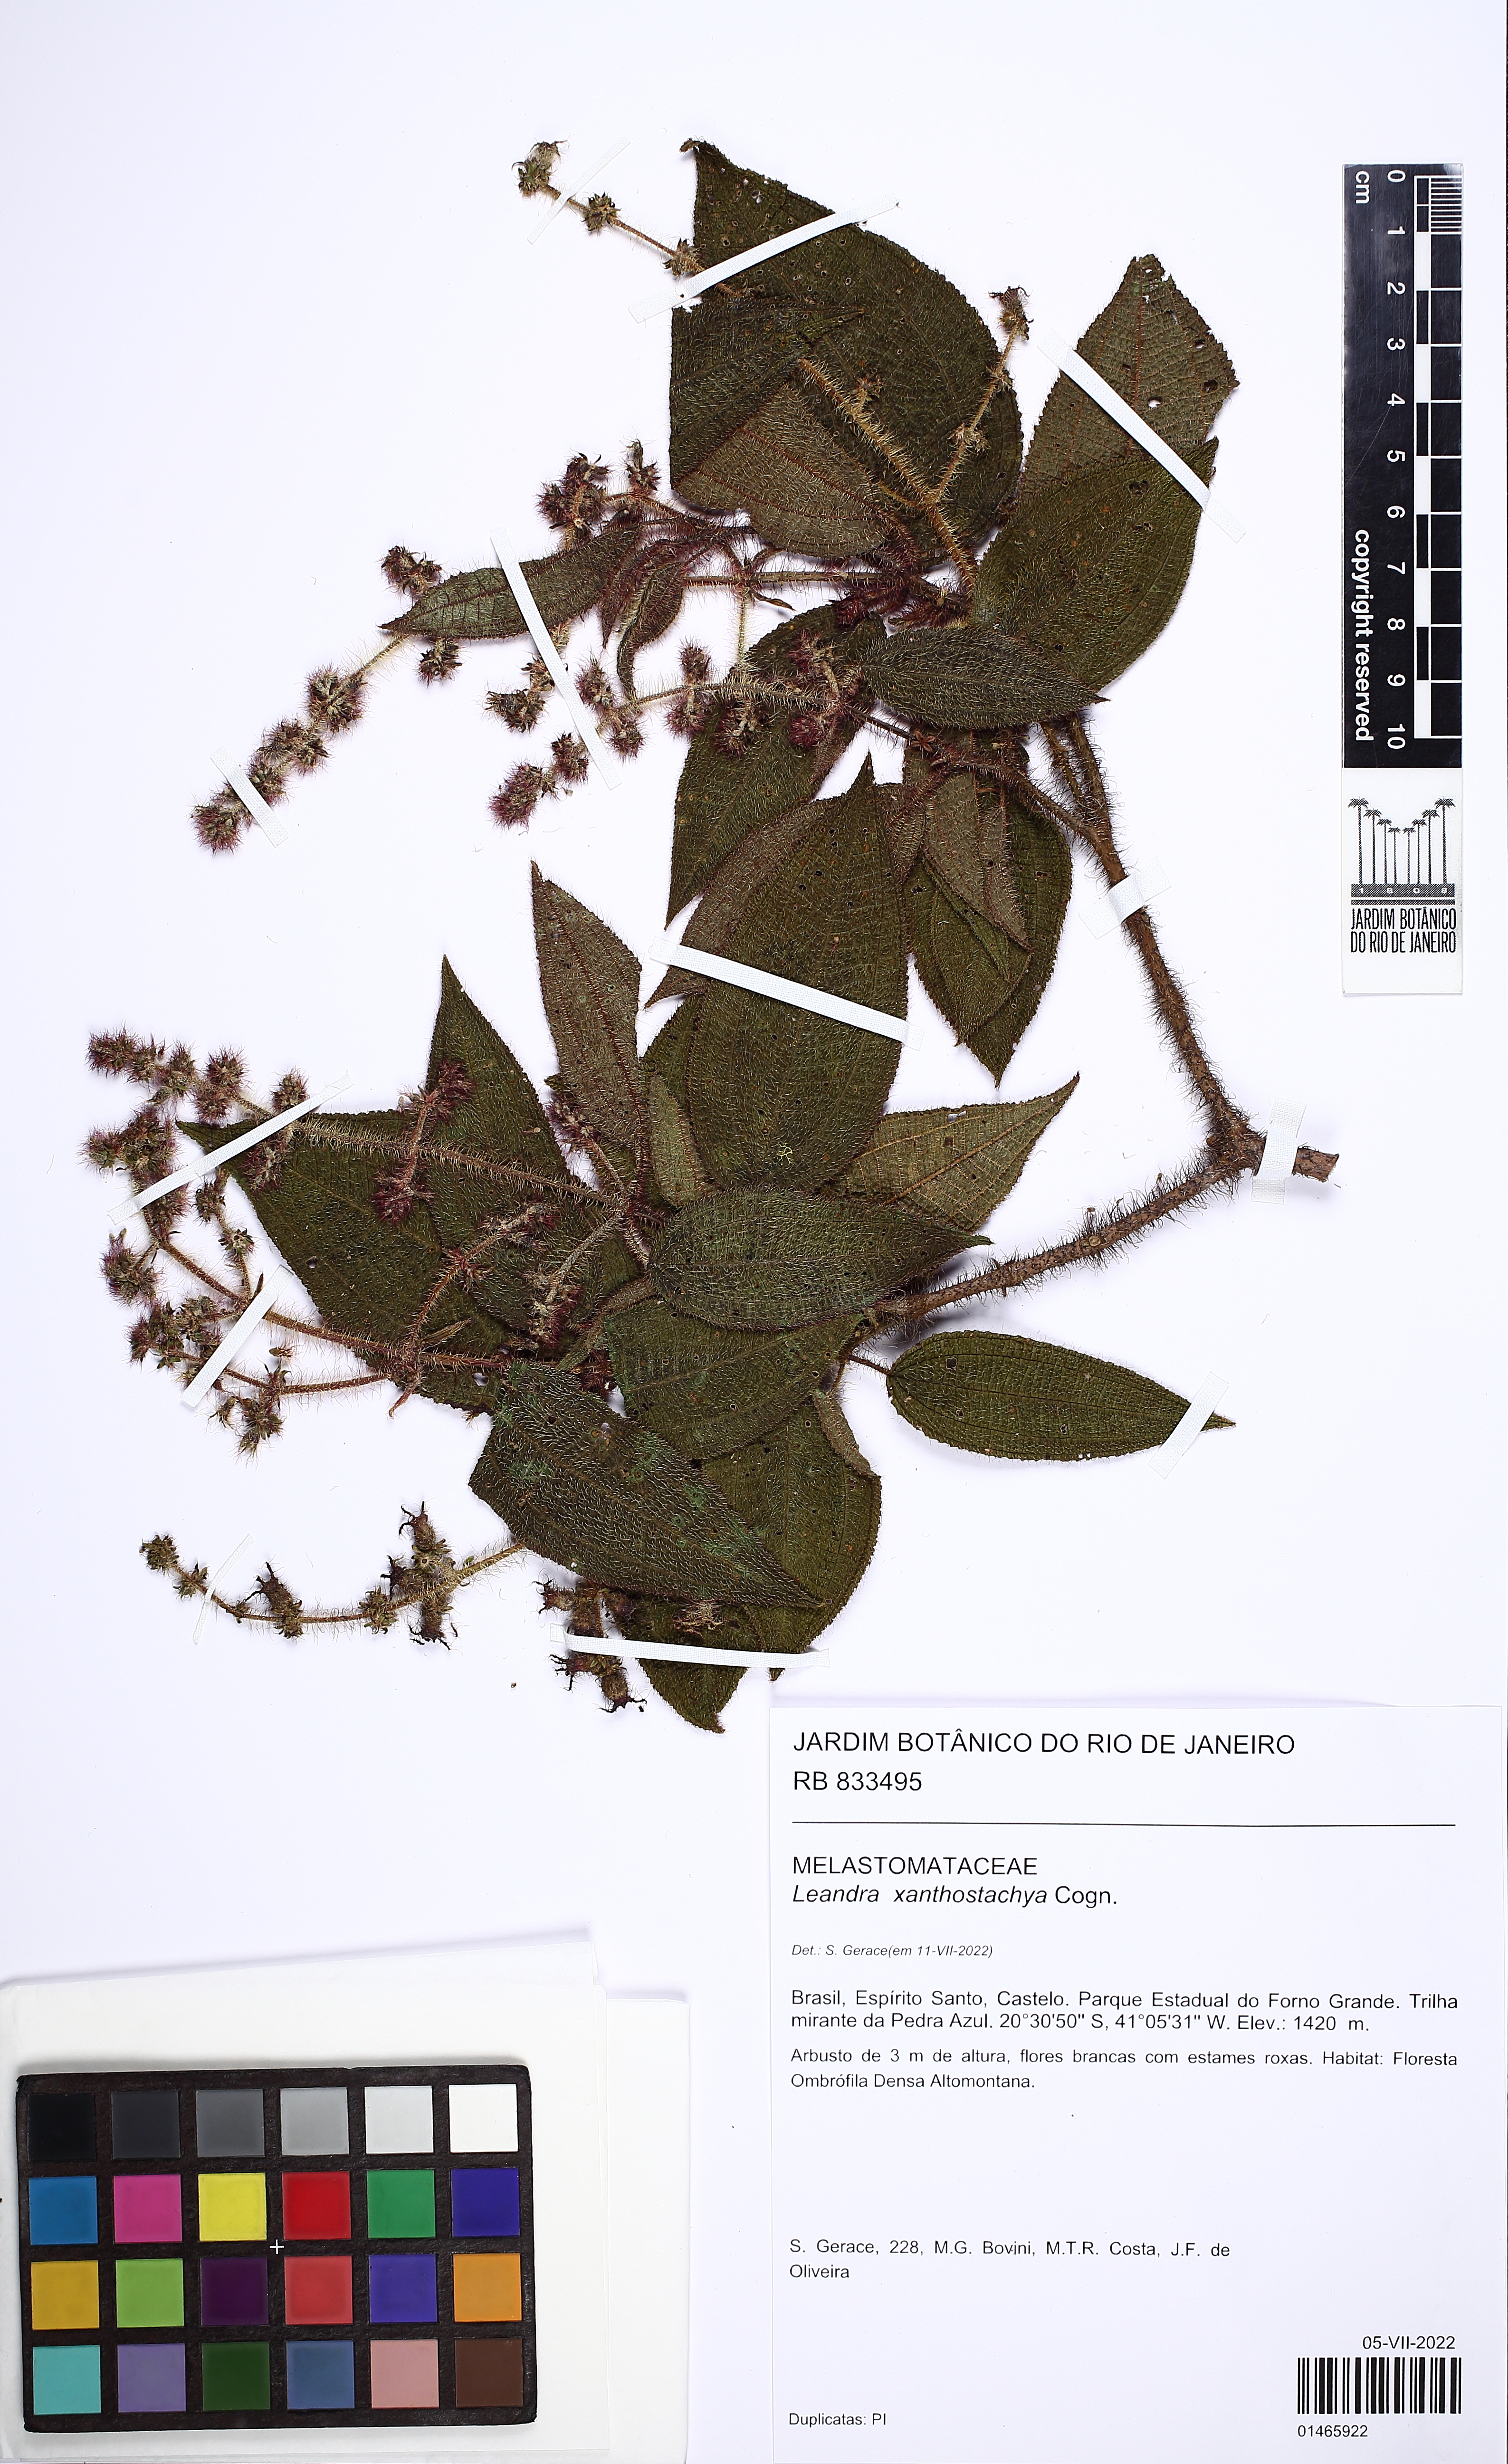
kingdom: Plantae
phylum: Tracheophyta
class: Magnoliopsida
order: Myrtales
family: Melastomataceae
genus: Miconia
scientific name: Miconia xanthostachya
